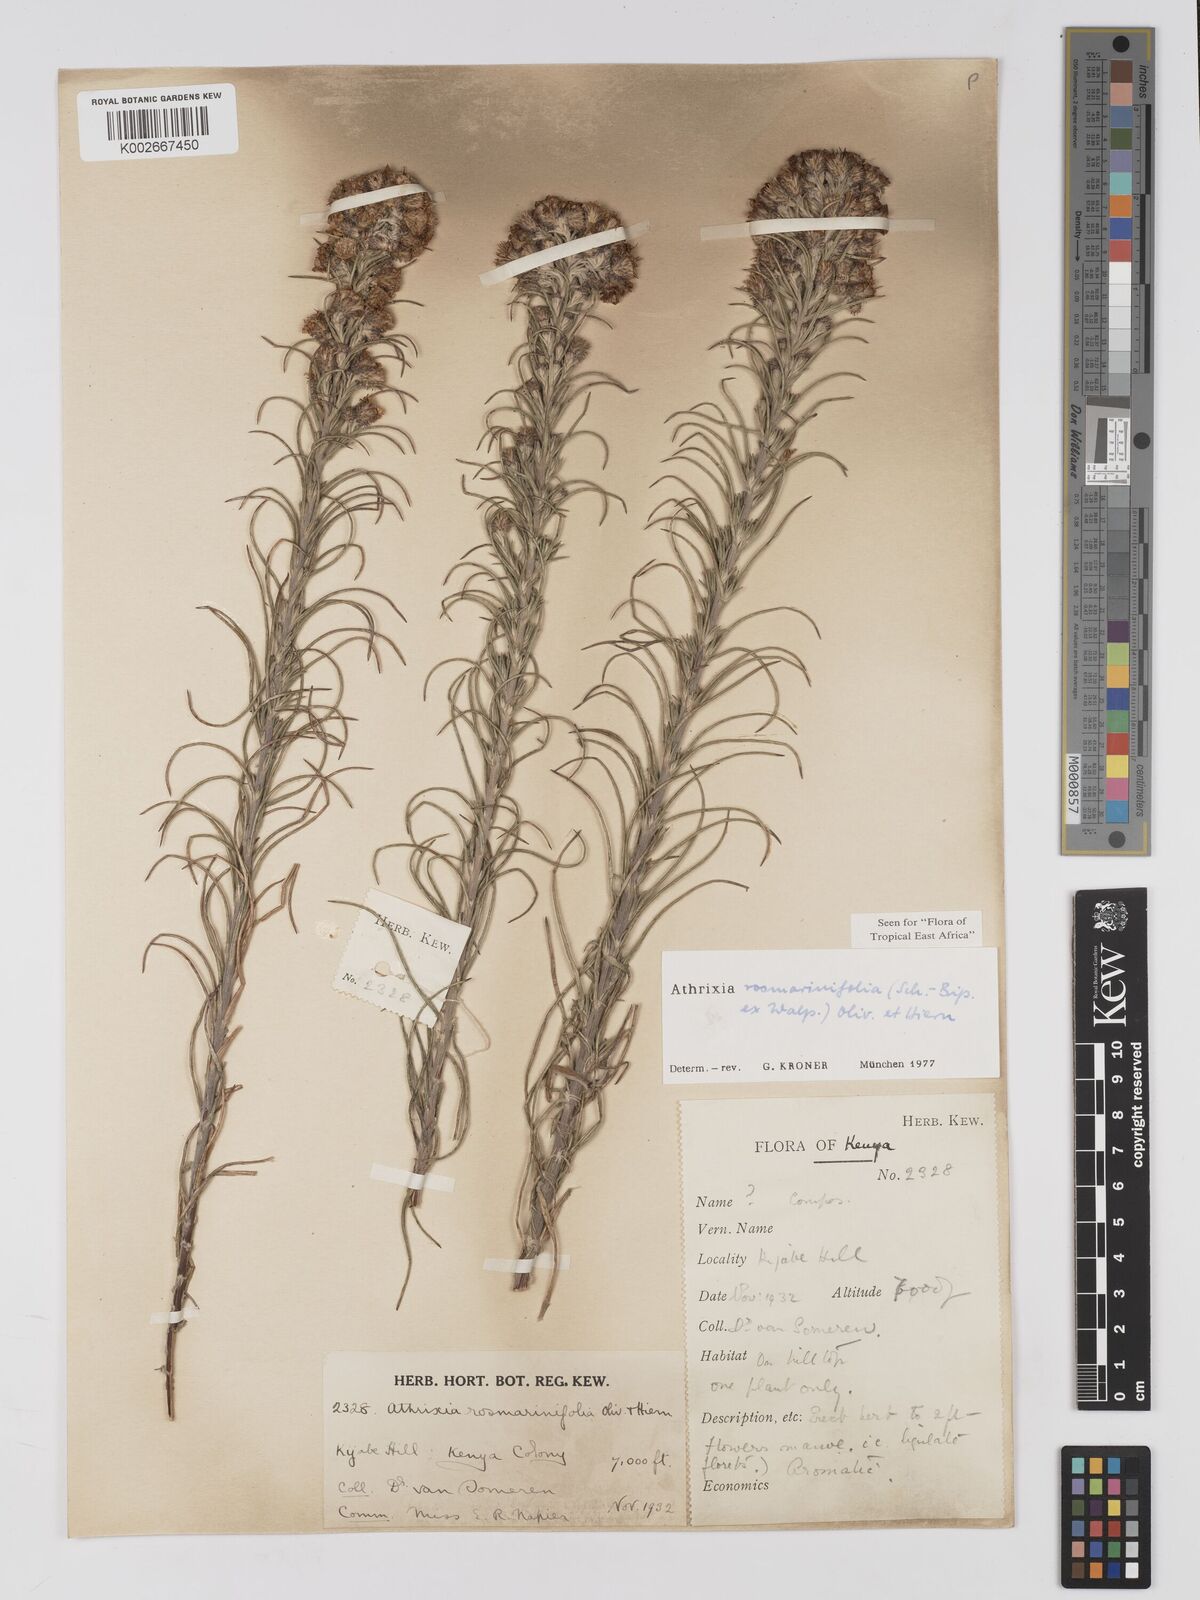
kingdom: Plantae
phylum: Tracheophyta
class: Magnoliopsida
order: Asterales
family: Asteraceae
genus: Athrixia
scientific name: Athrixia rosmarinifolia
